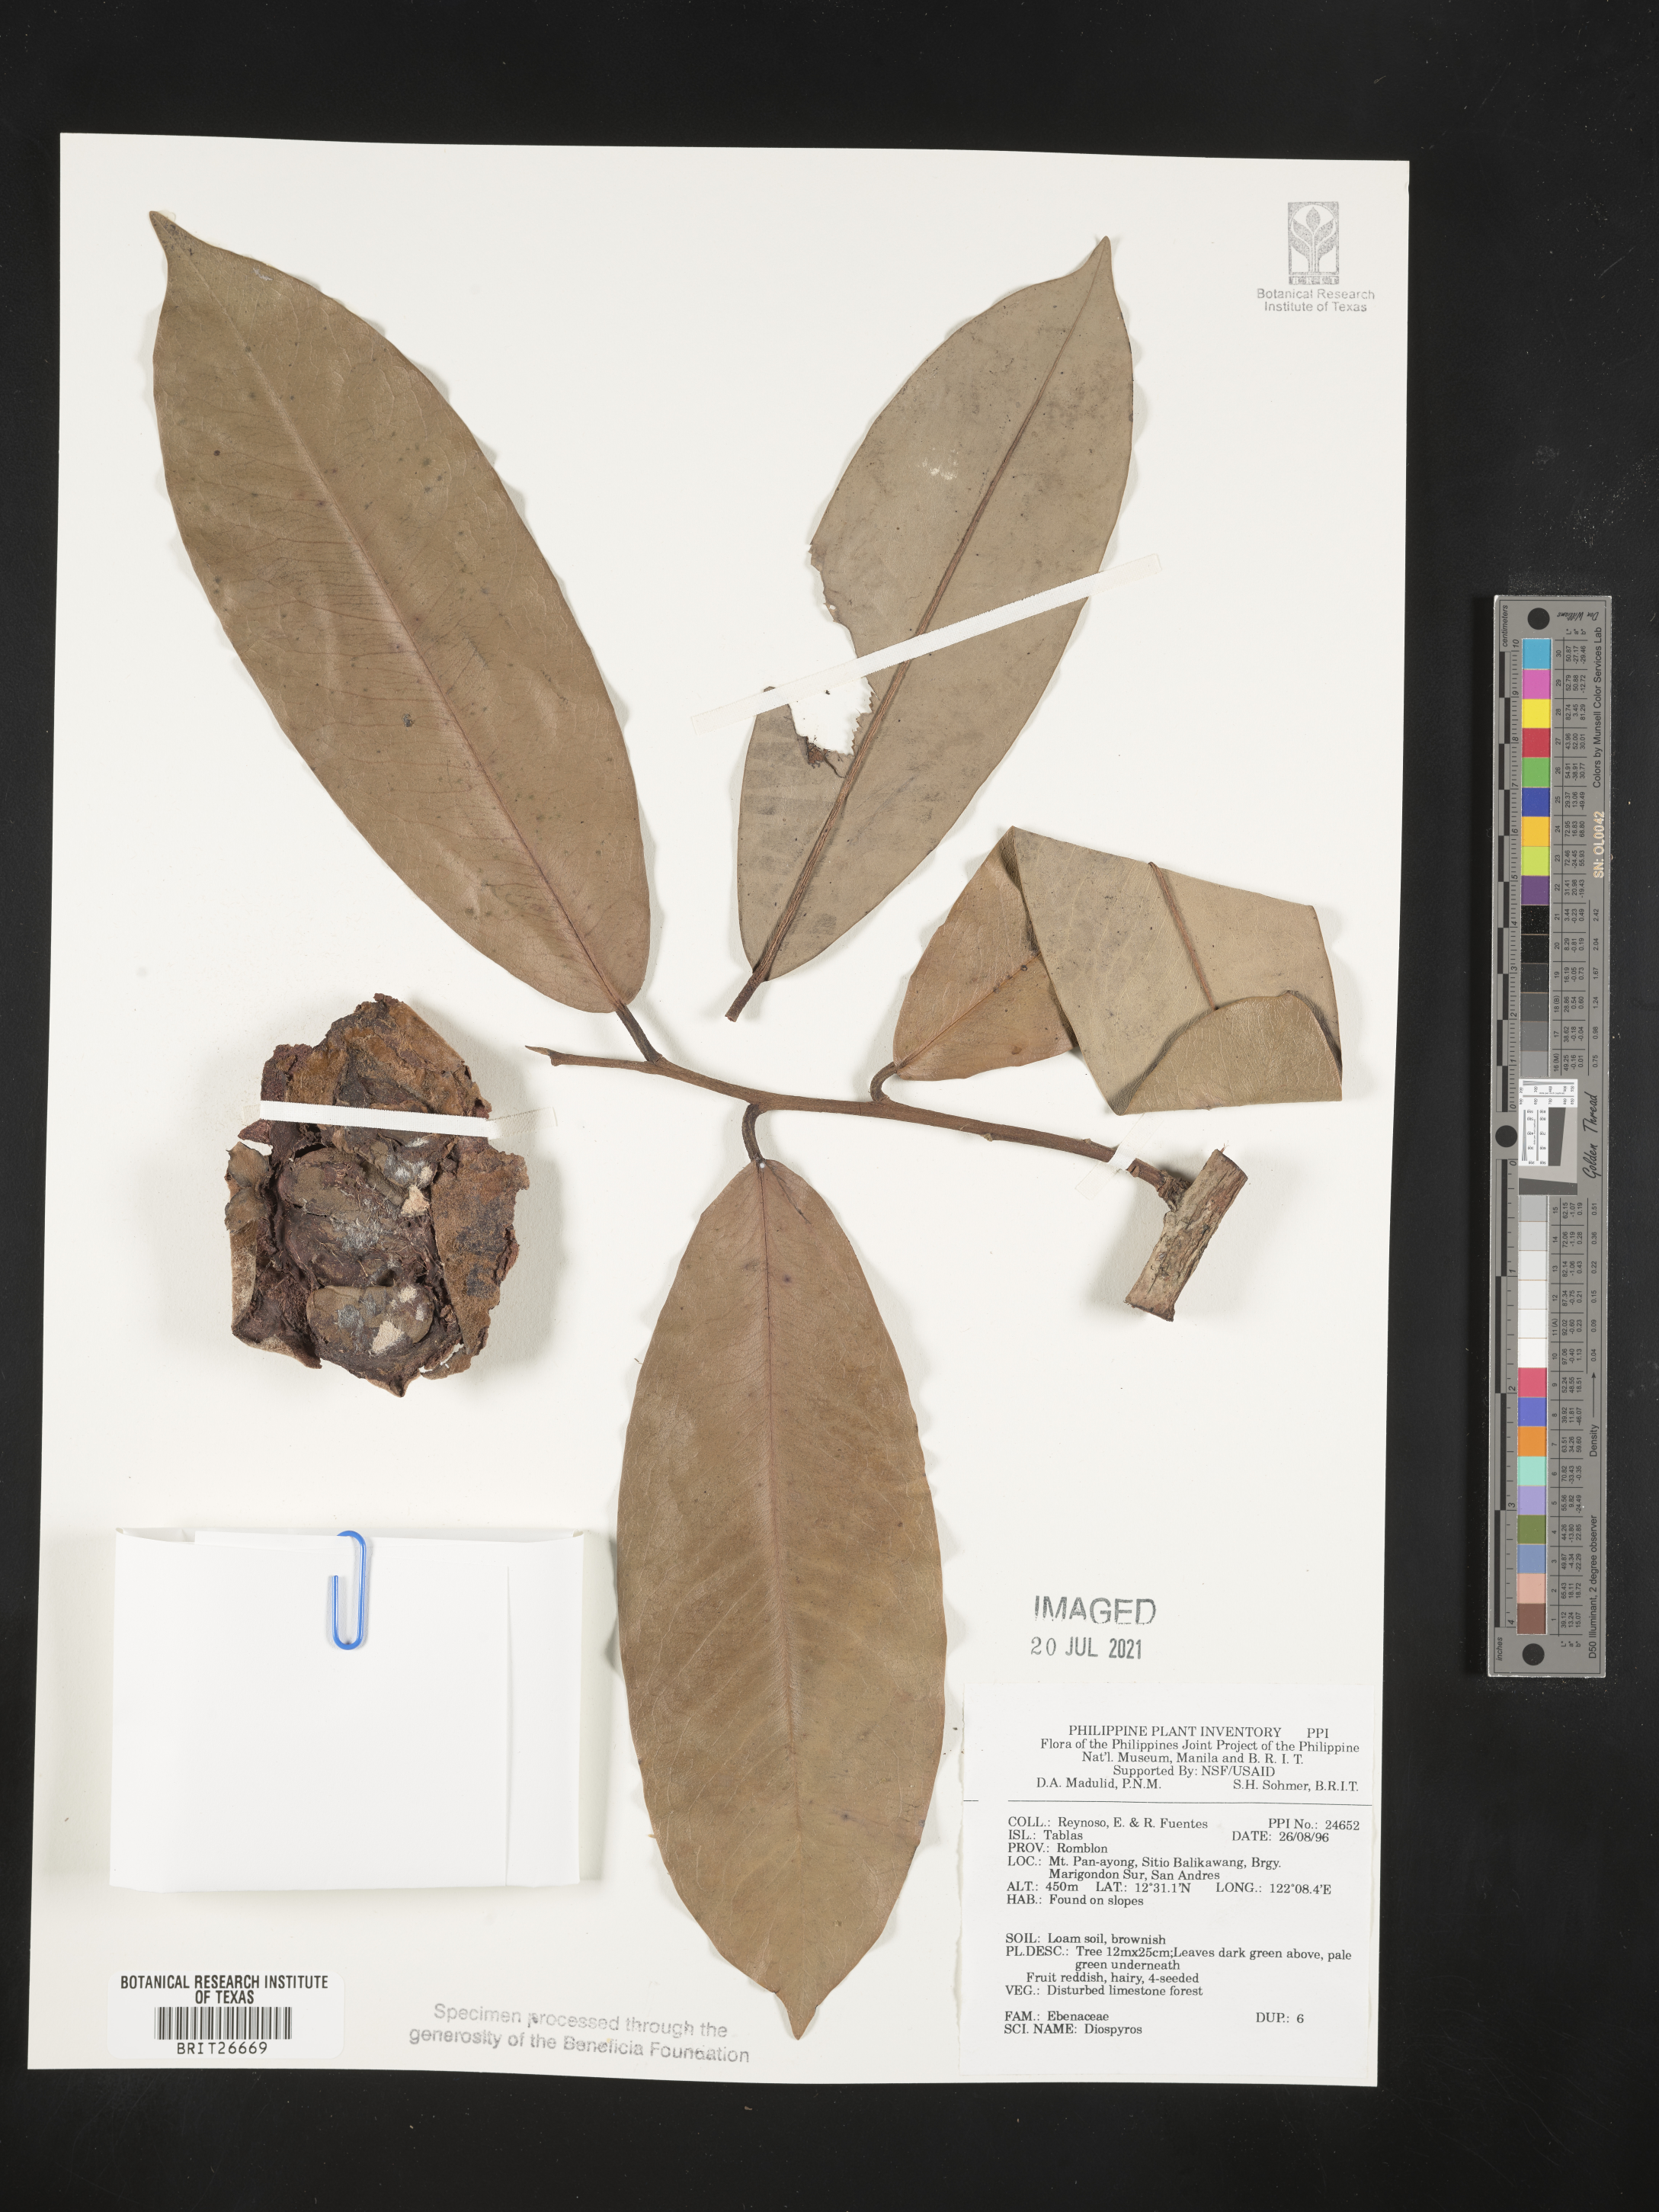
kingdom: Plantae
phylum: Tracheophyta
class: Magnoliopsida
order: Ericales
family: Ebenaceae
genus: Diospyros
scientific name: Diospyros
